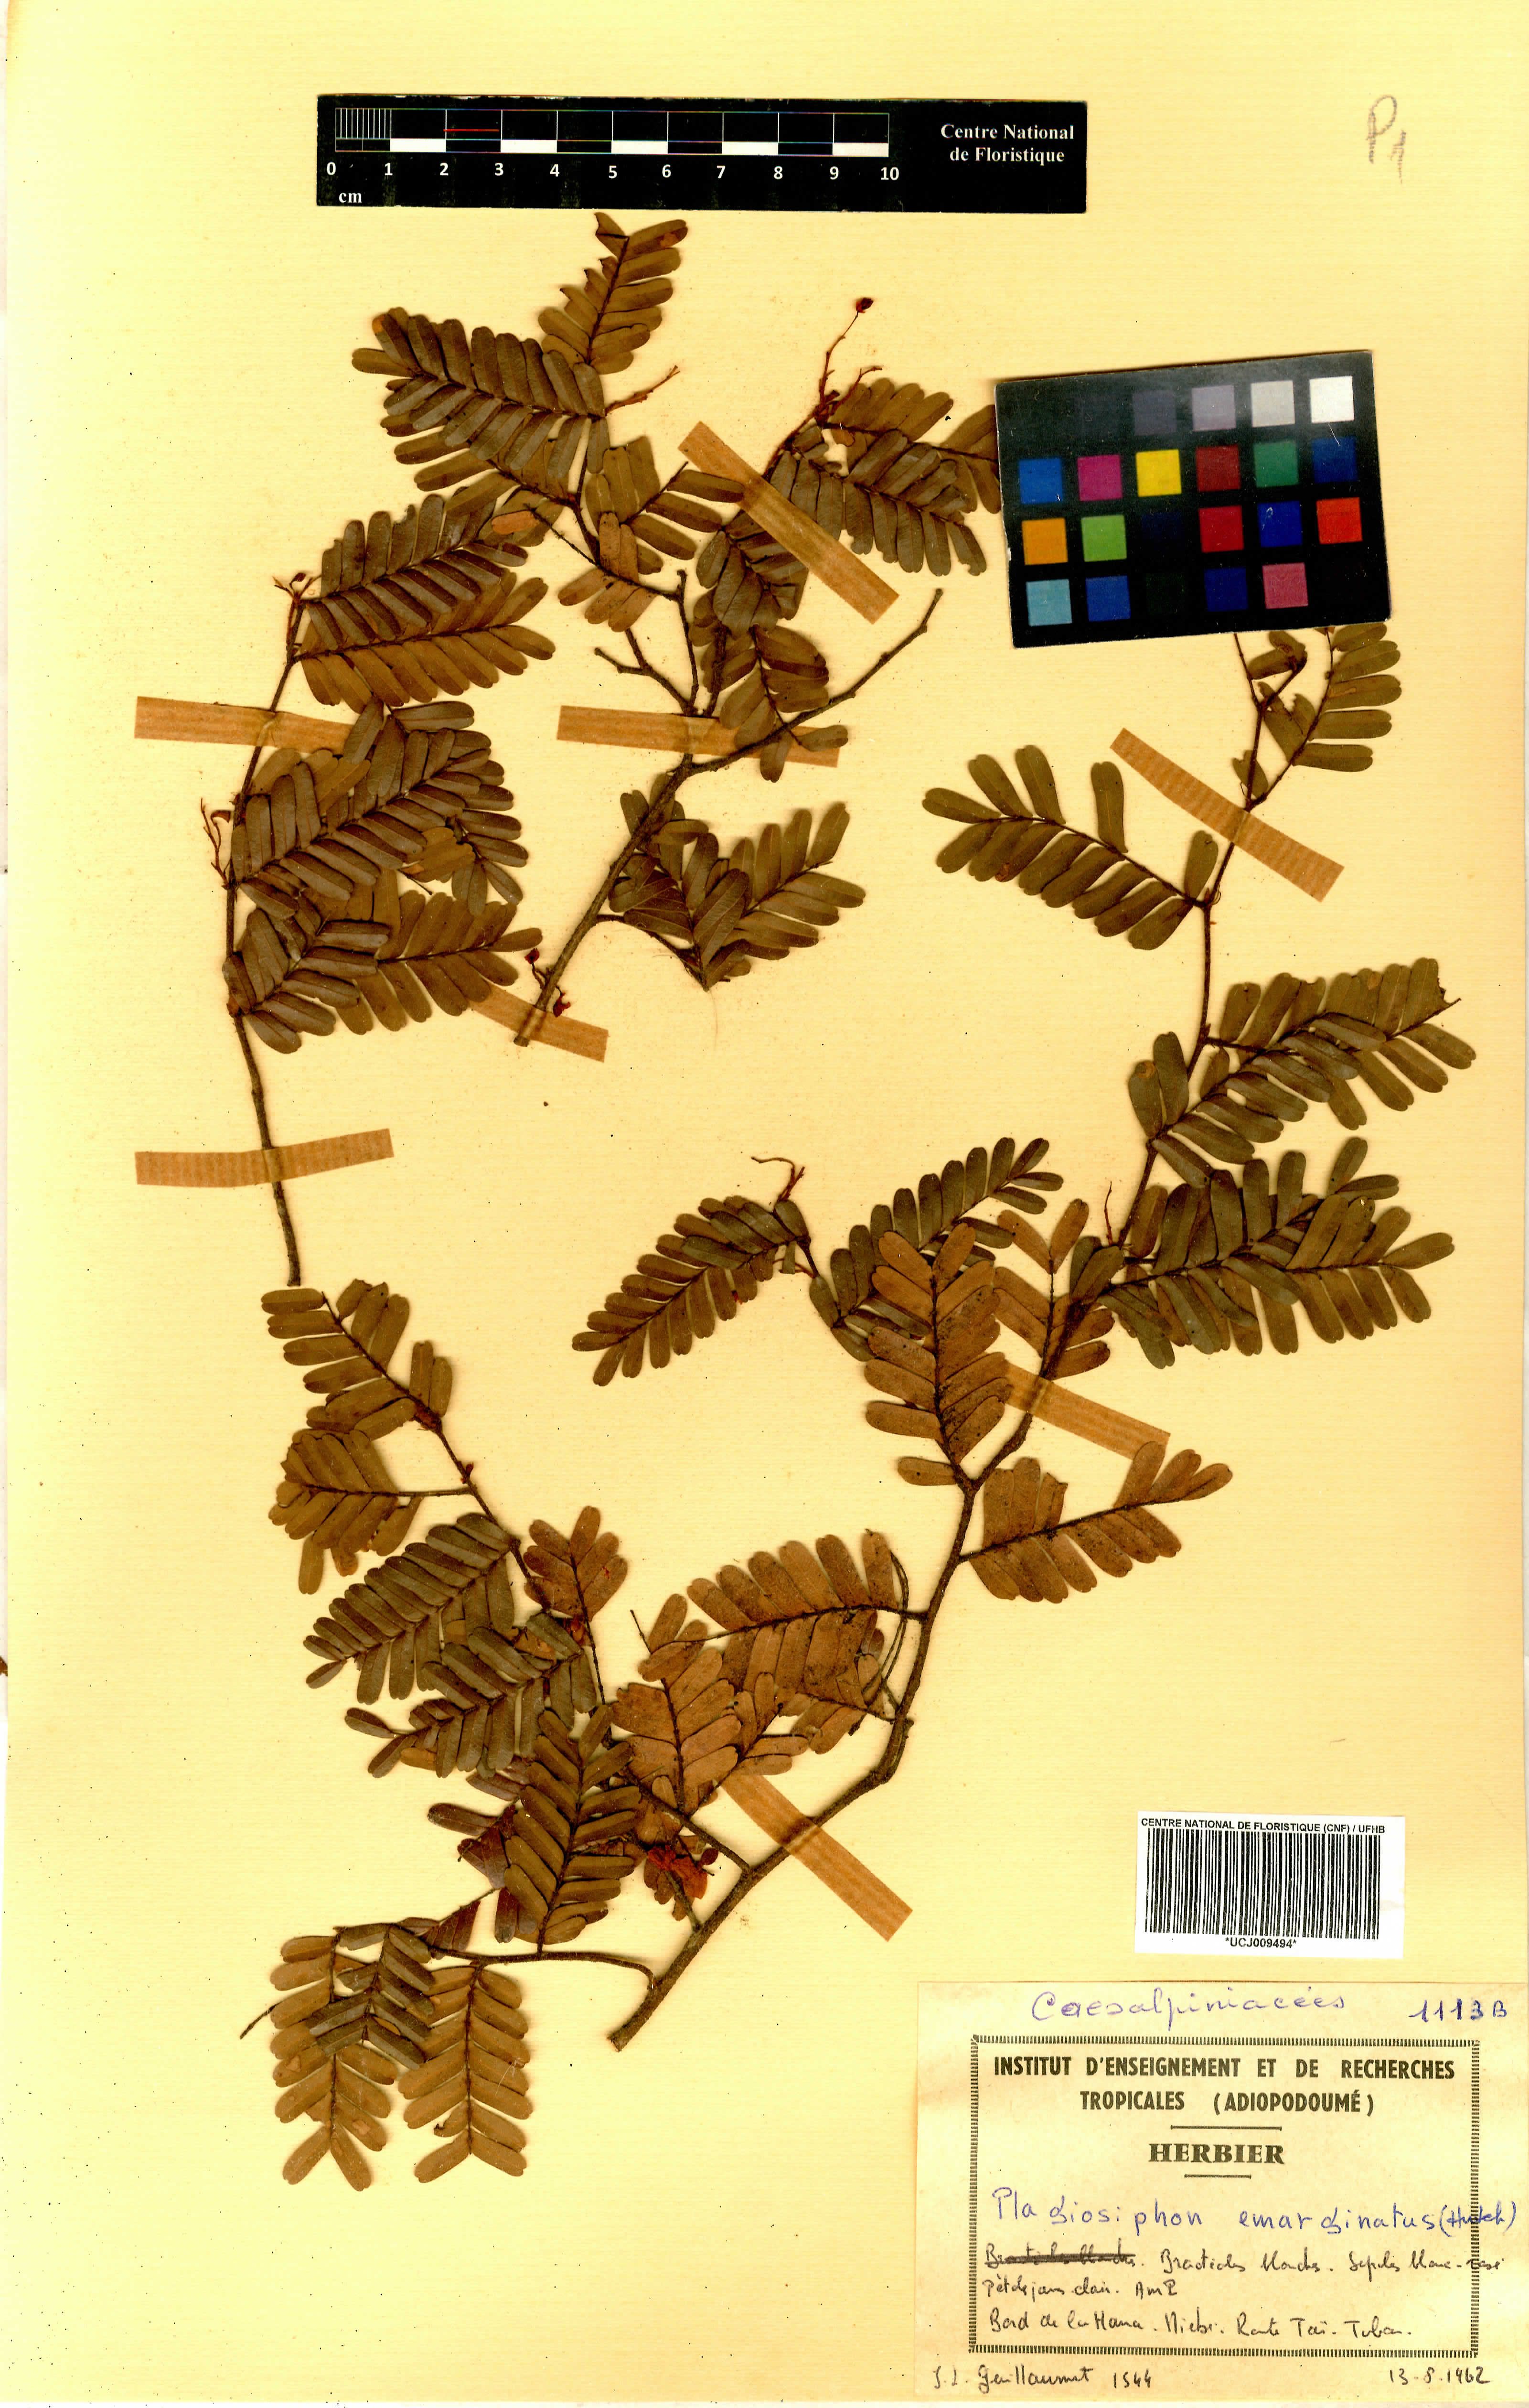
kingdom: Plantae
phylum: Tracheophyta
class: Magnoliopsida
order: Fabales
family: Fabaceae
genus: Plagiosiphon
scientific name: Plagiosiphon emarginatus
